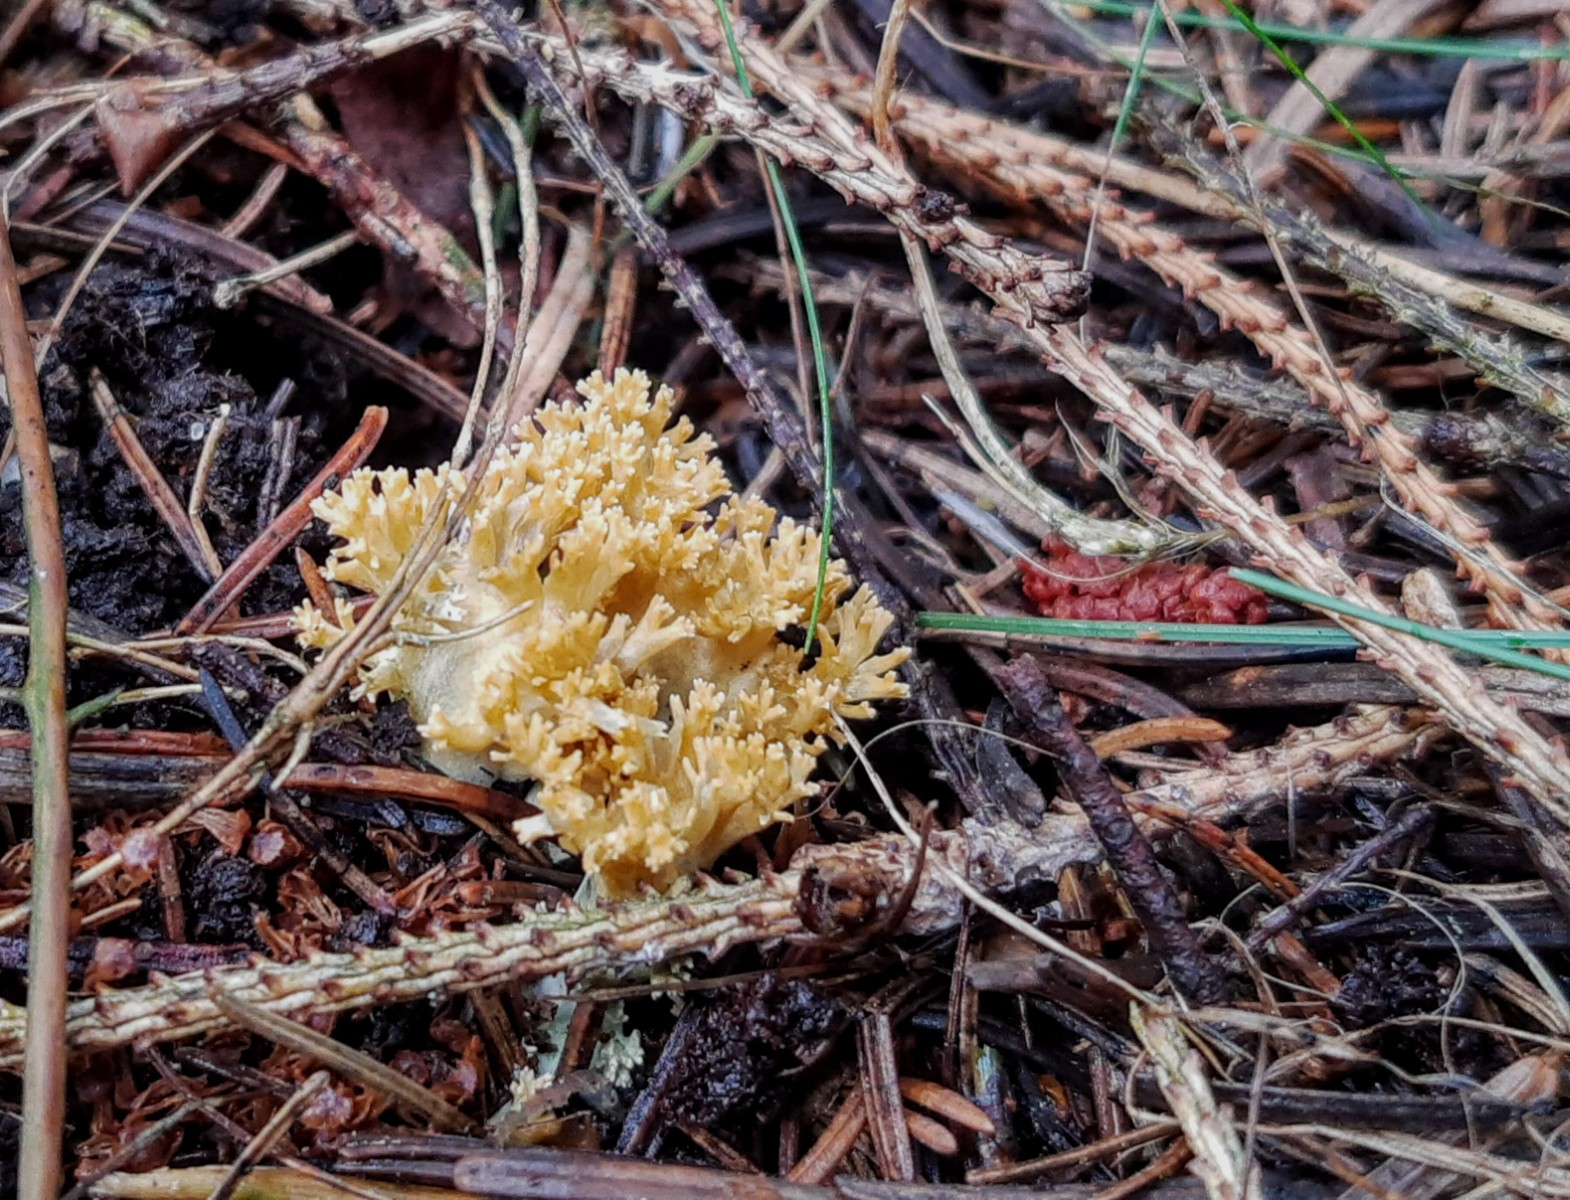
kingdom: Fungi
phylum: Basidiomycota
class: Agaricomycetes
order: Gomphales
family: Gomphaceae
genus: Phaeoclavulina
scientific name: Phaeoclavulina eumorpha
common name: gran-koralsvamp
